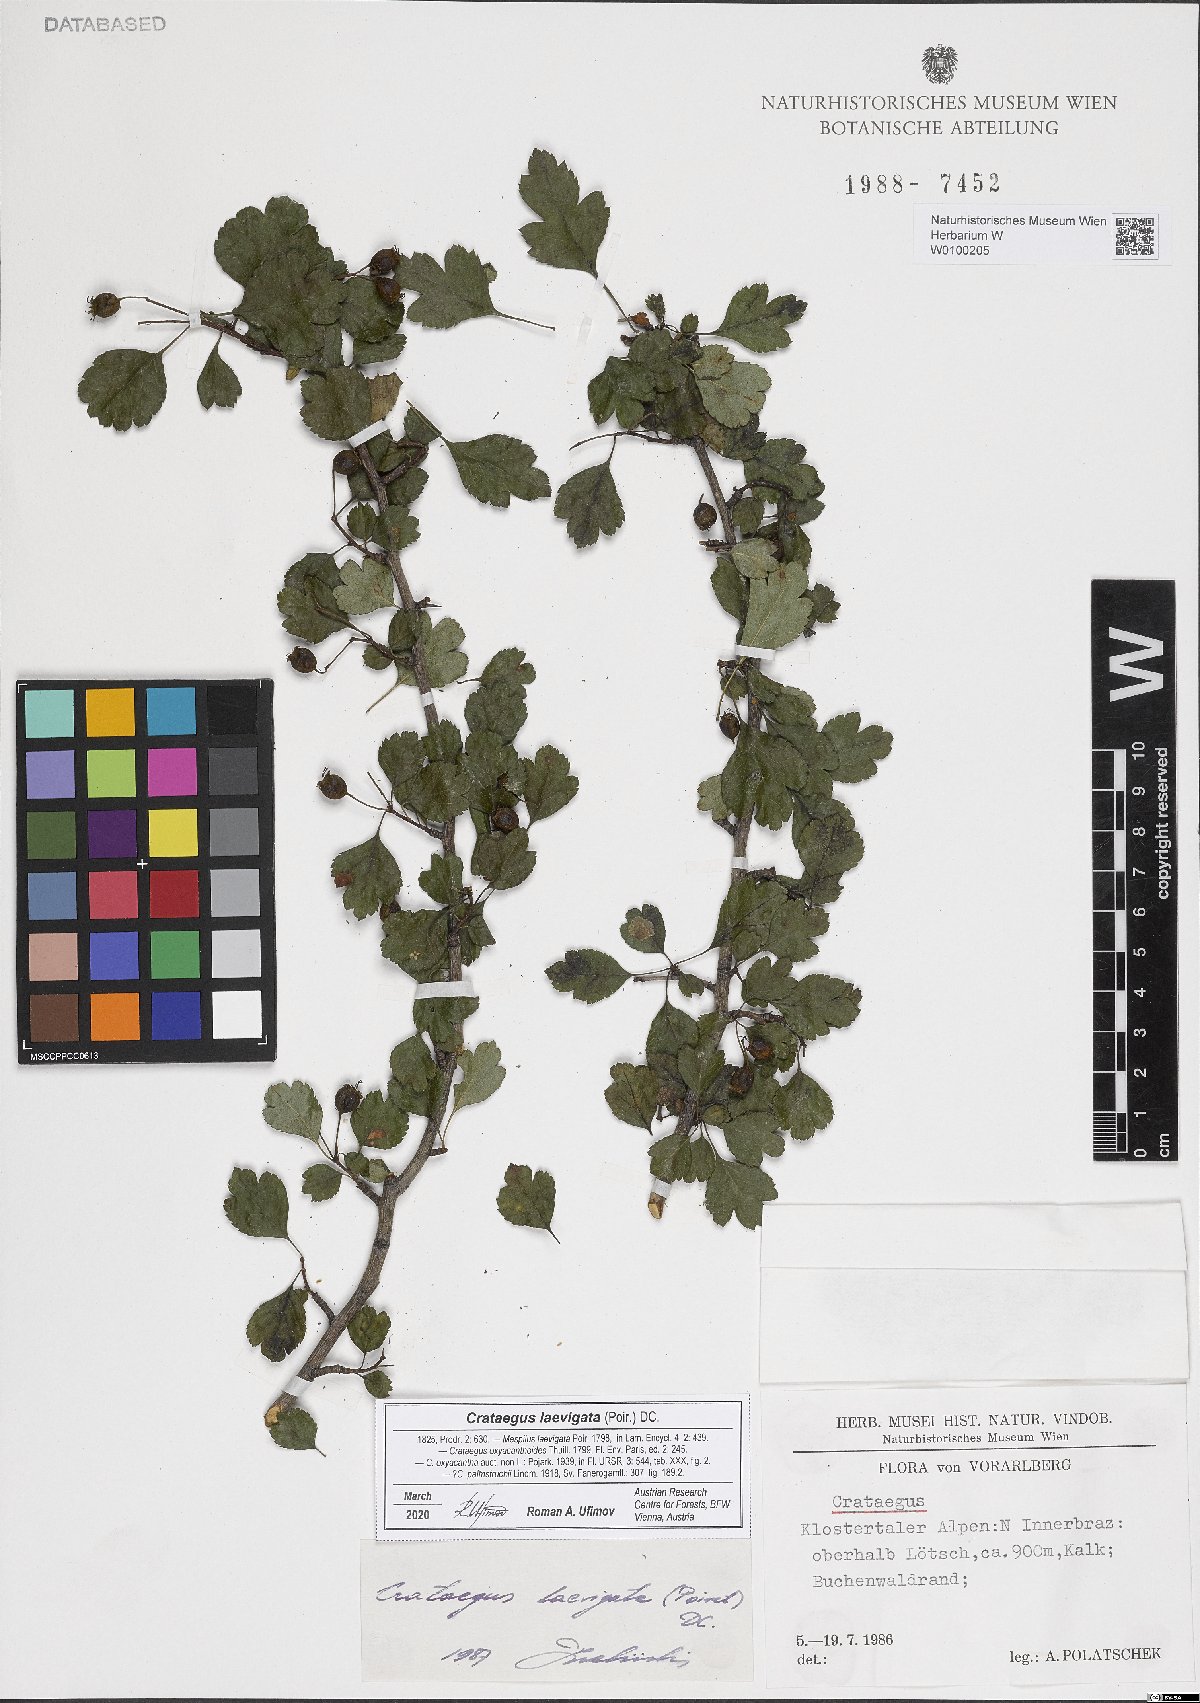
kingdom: Plantae
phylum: Tracheophyta
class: Magnoliopsida
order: Rosales
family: Rosaceae
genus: Crataegus
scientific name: Crataegus laevigata
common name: Midland hawthorn
